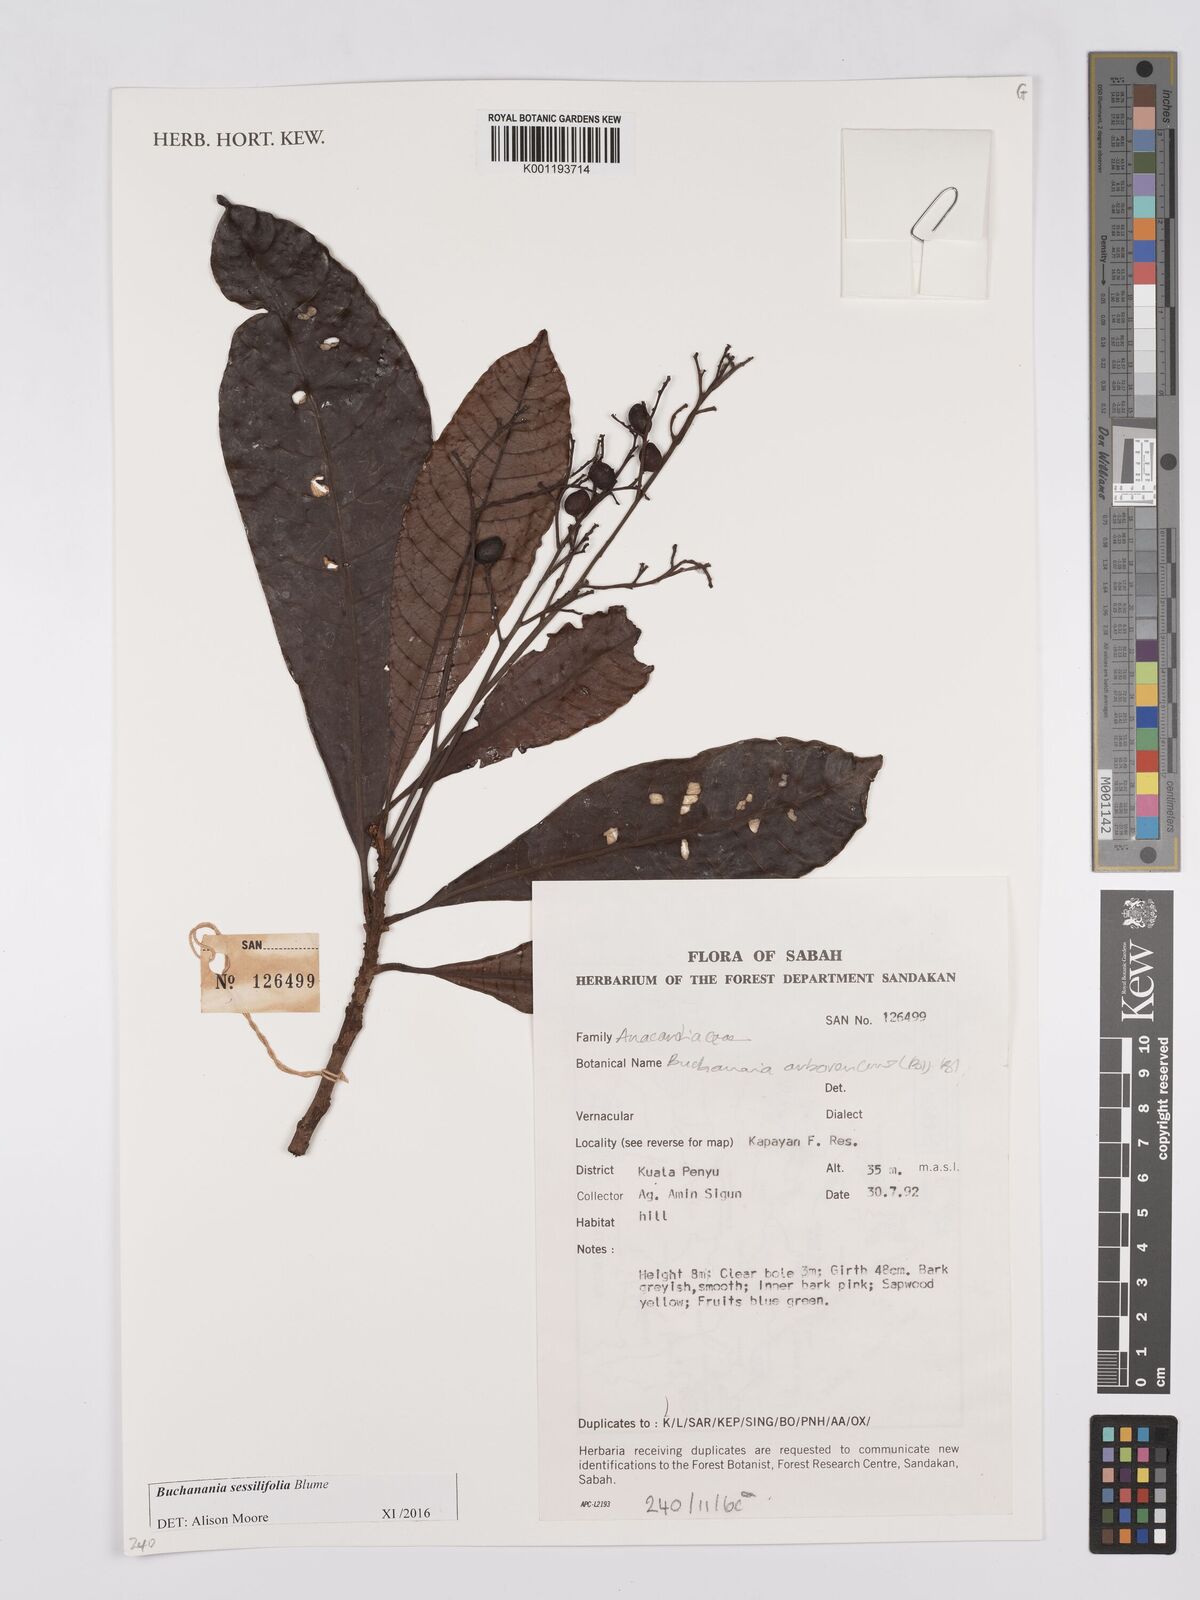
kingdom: Plantae
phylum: Tracheophyta
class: Magnoliopsida
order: Sapindales
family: Anacardiaceae
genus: Buchanania
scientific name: Buchanania sessifolia
